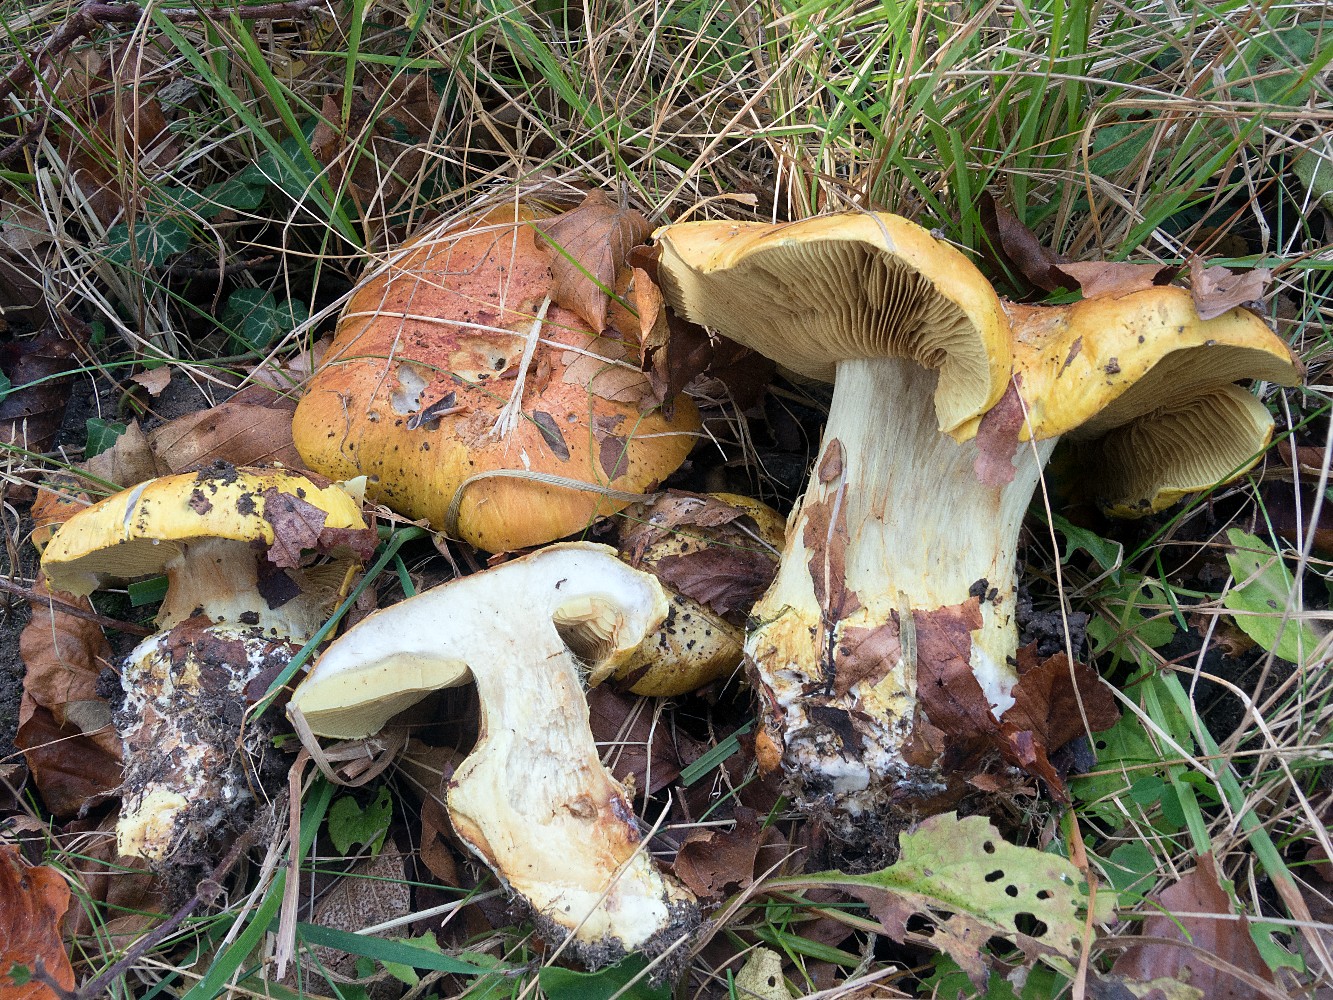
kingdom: Fungi
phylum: Basidiomycota
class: Agaricomycetes
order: Agaricales
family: Cortinariaceae
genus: Cortinarius
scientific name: Cortinarius bergeronii
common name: prægtig slørhat
